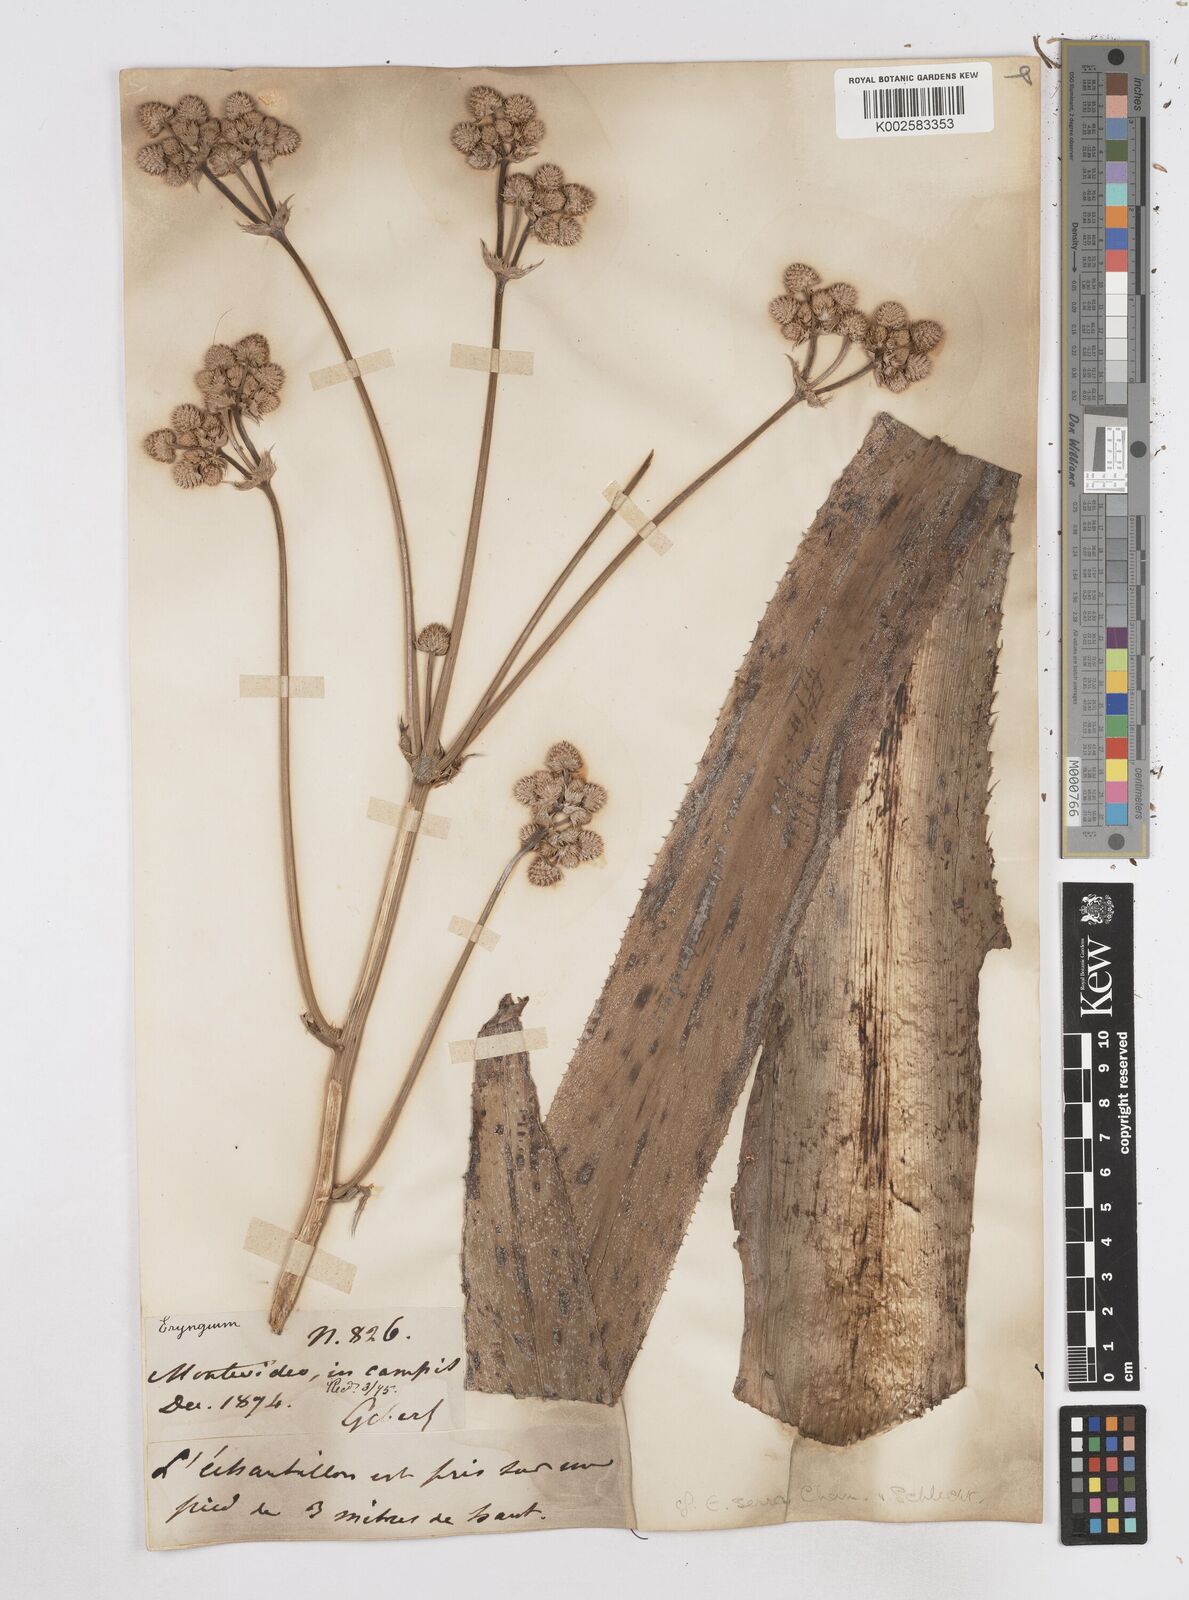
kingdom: Plantae
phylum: Tracheophyta
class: Magnoliopsida
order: Apiales
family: Apiaceae
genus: Eryngium
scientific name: Eryngium serra
